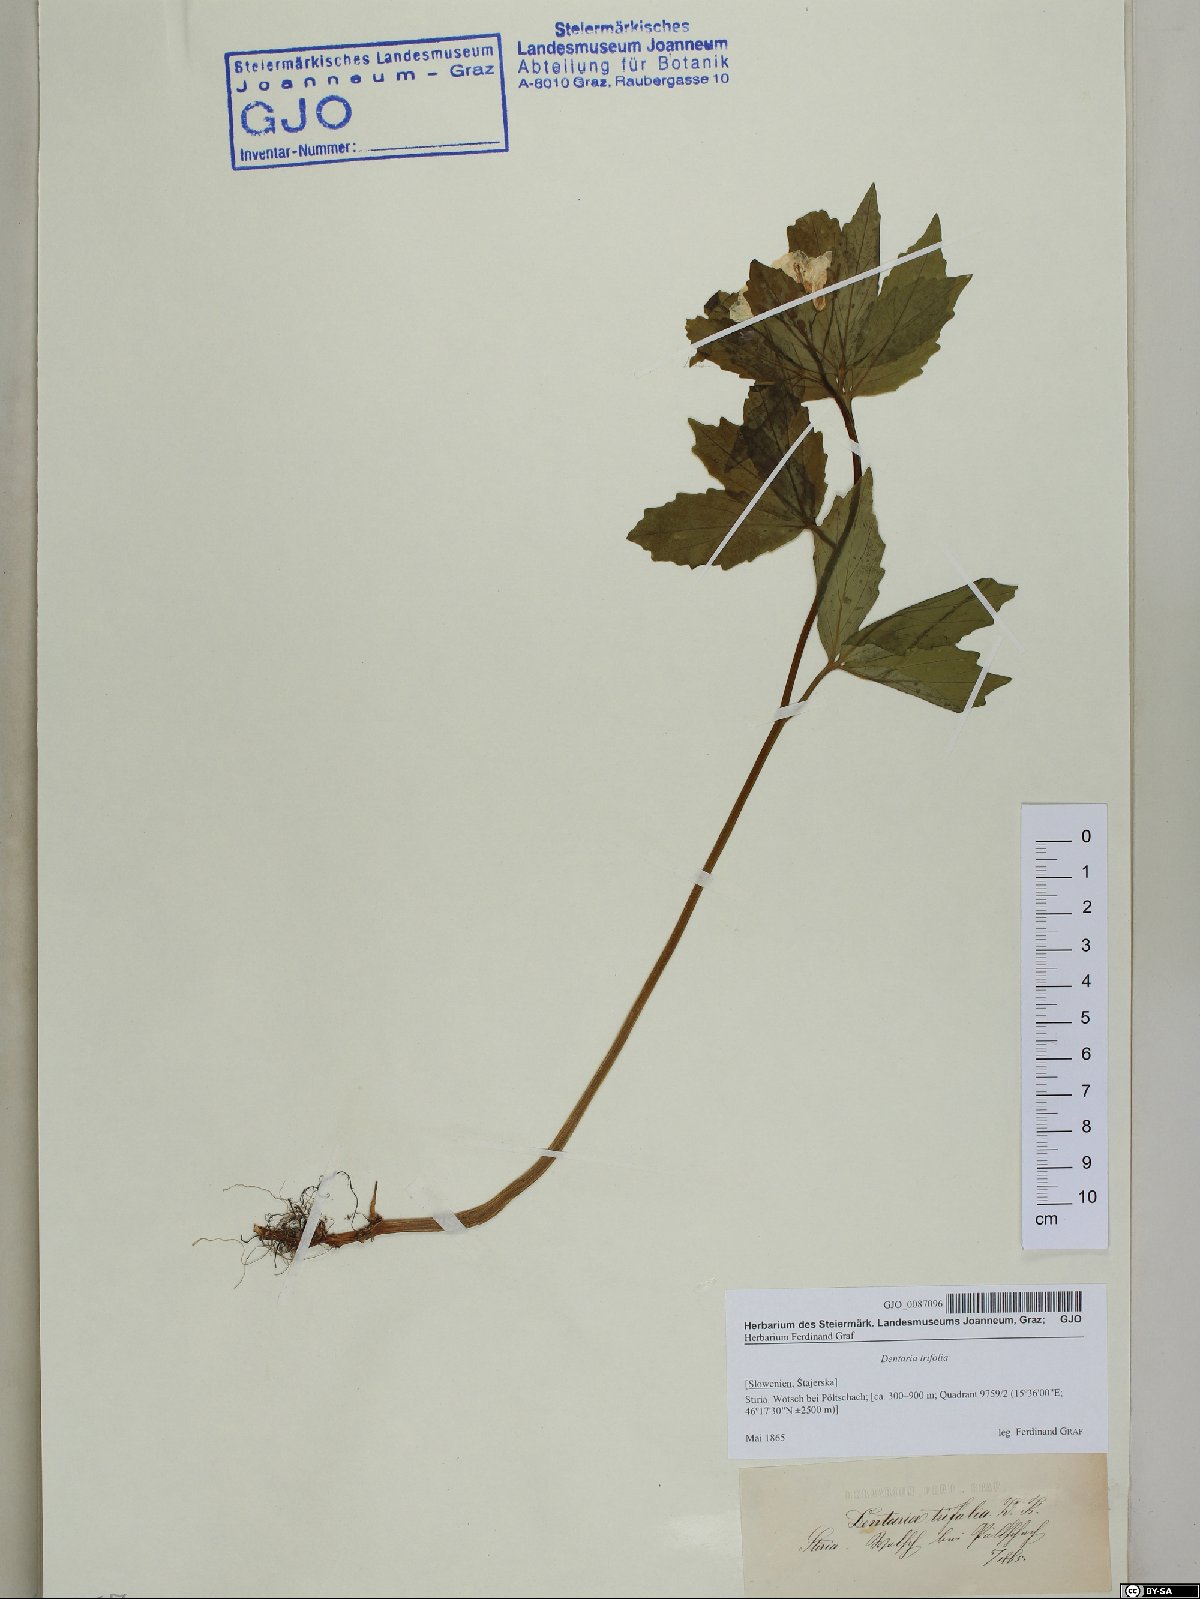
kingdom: Plantae
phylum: Tracheophyta
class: Magnoliopsida
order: Brassicales
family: Brassicaceae
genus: Cardamine
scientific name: Cardamine waldsteinii
